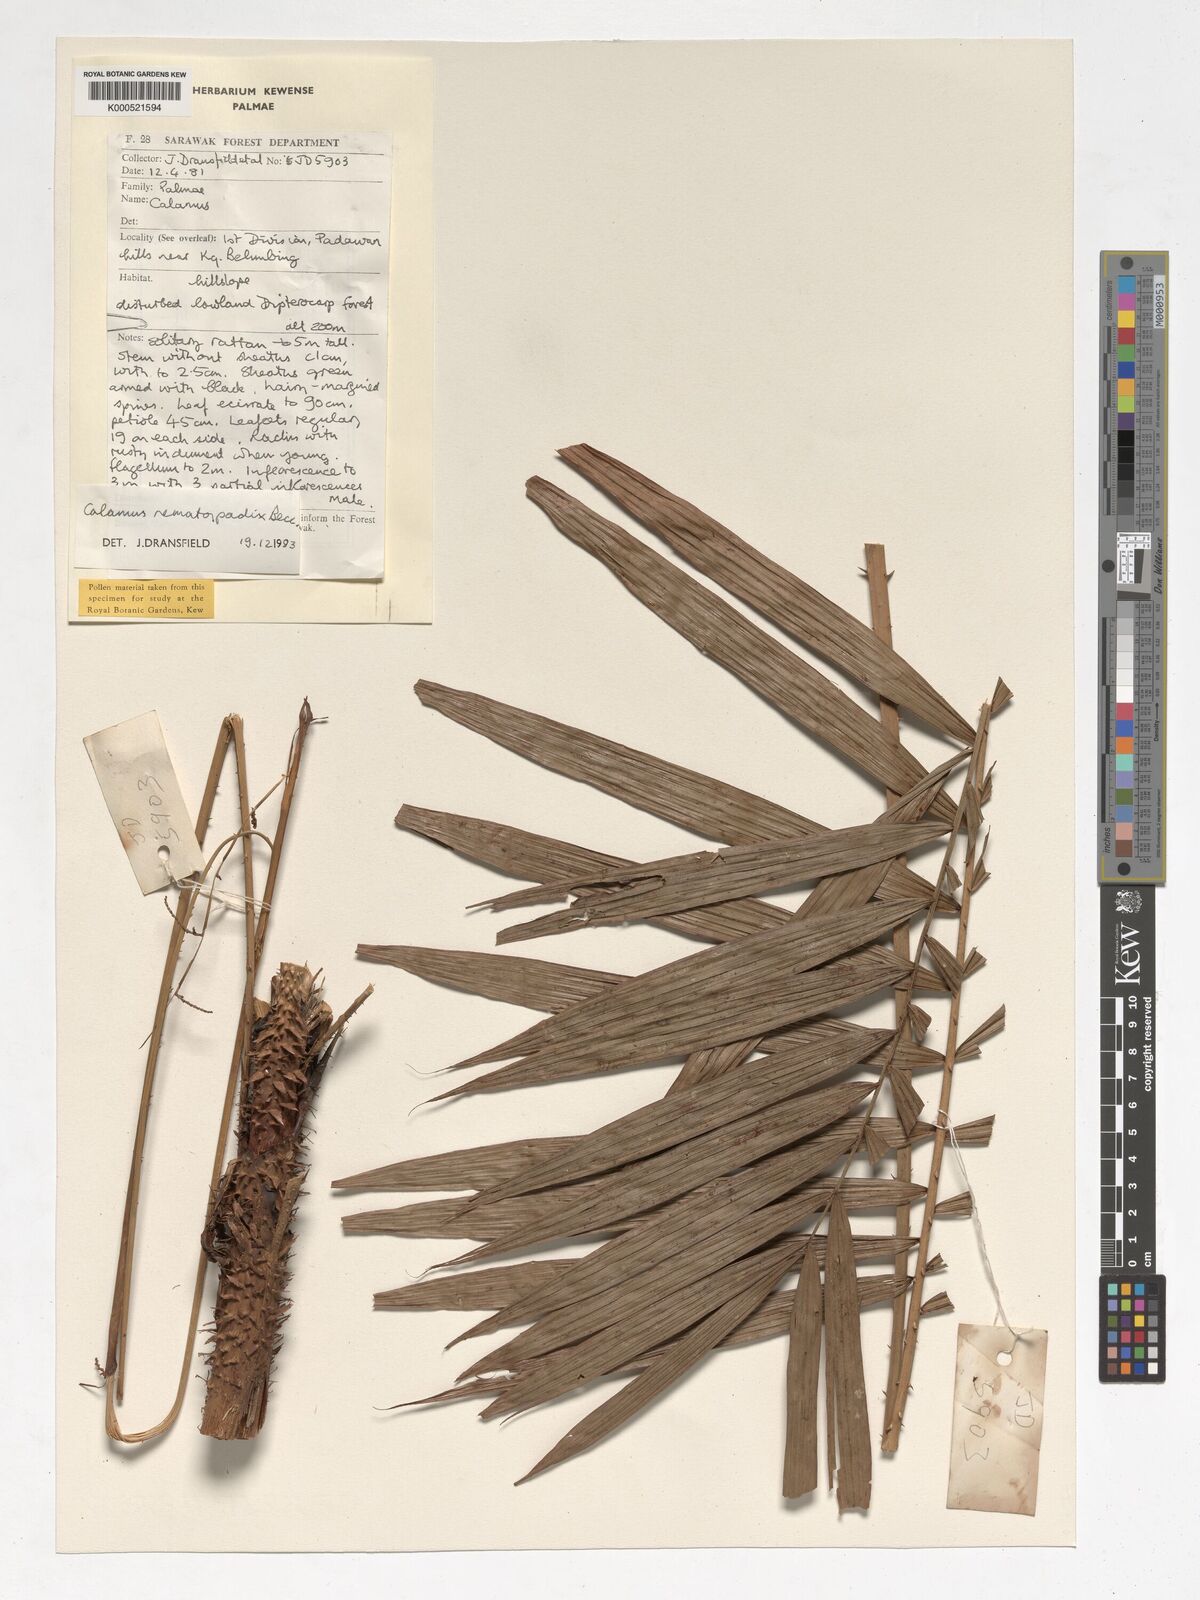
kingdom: Plantae
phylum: Tracheophyta
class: Liliopsida
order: Arecales
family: Arecaceae
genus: Calamus
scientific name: Calamus nematospadix
